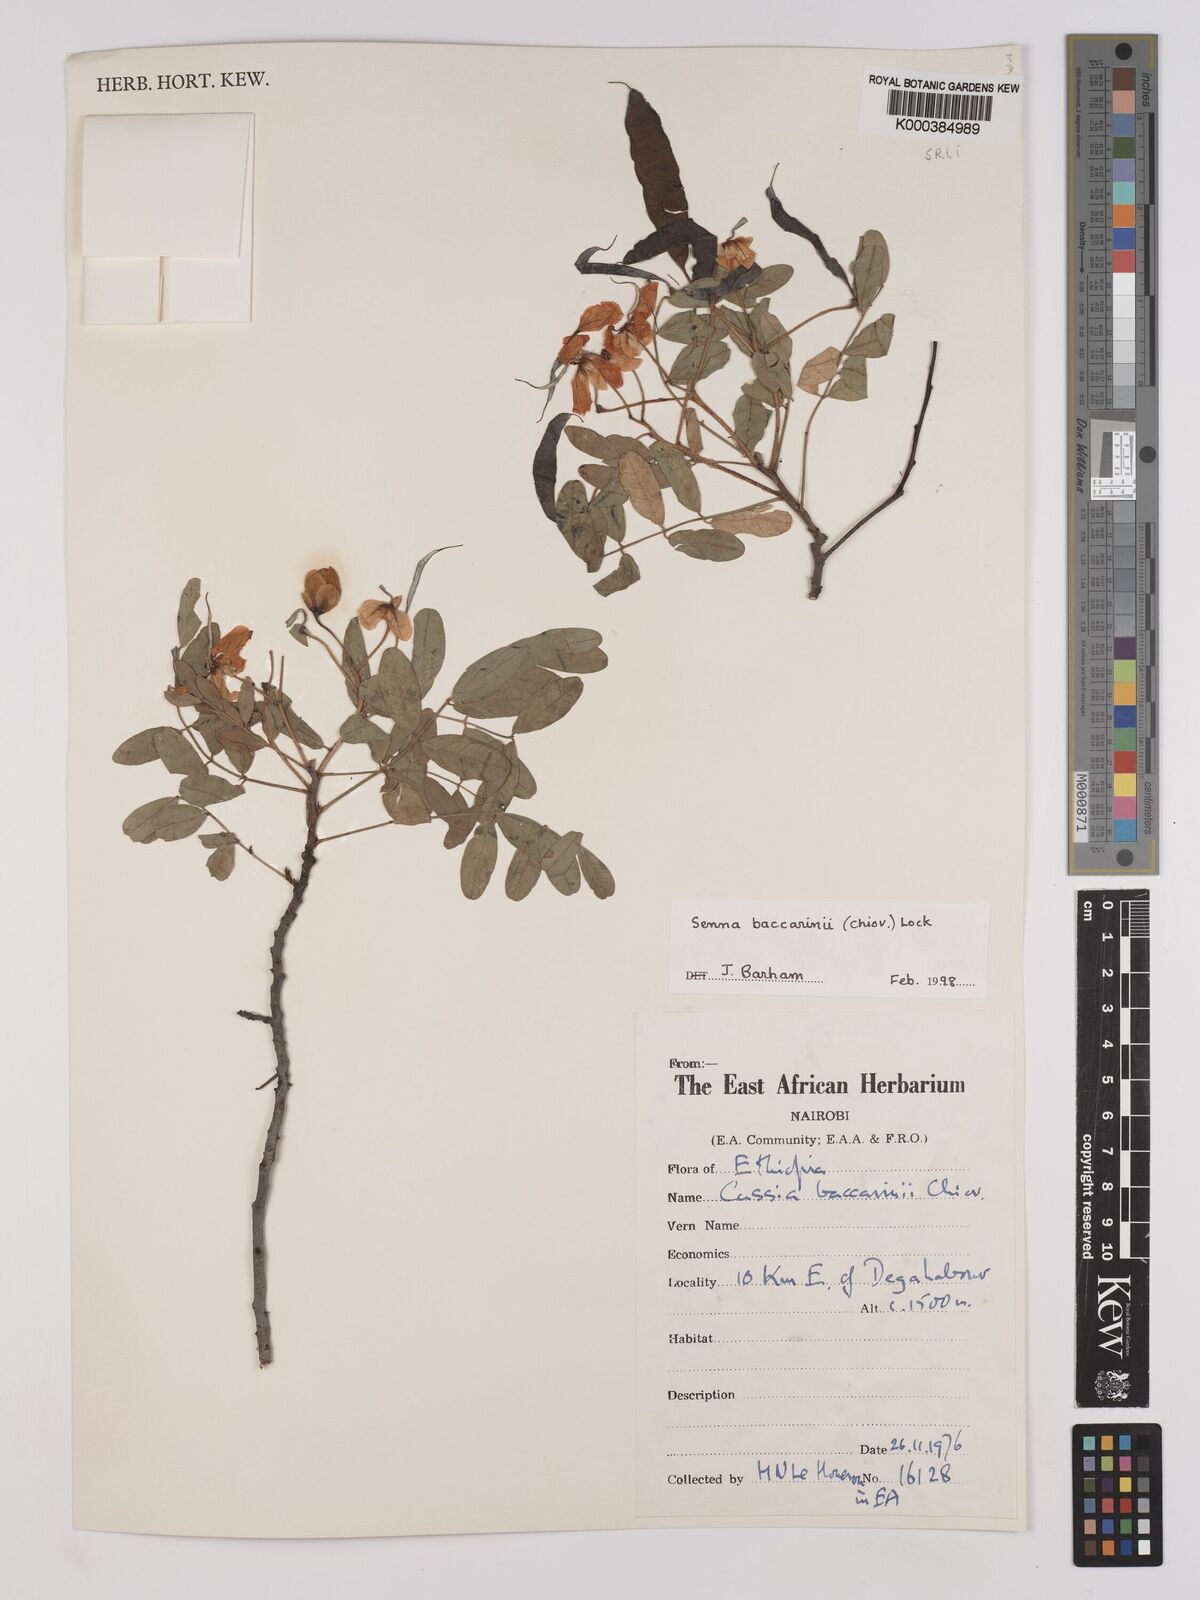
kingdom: Plantae
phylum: Tracheophyta
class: Magnoliopsida
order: Fabales
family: Fabaceae
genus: Senna
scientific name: Senna baccarinii
